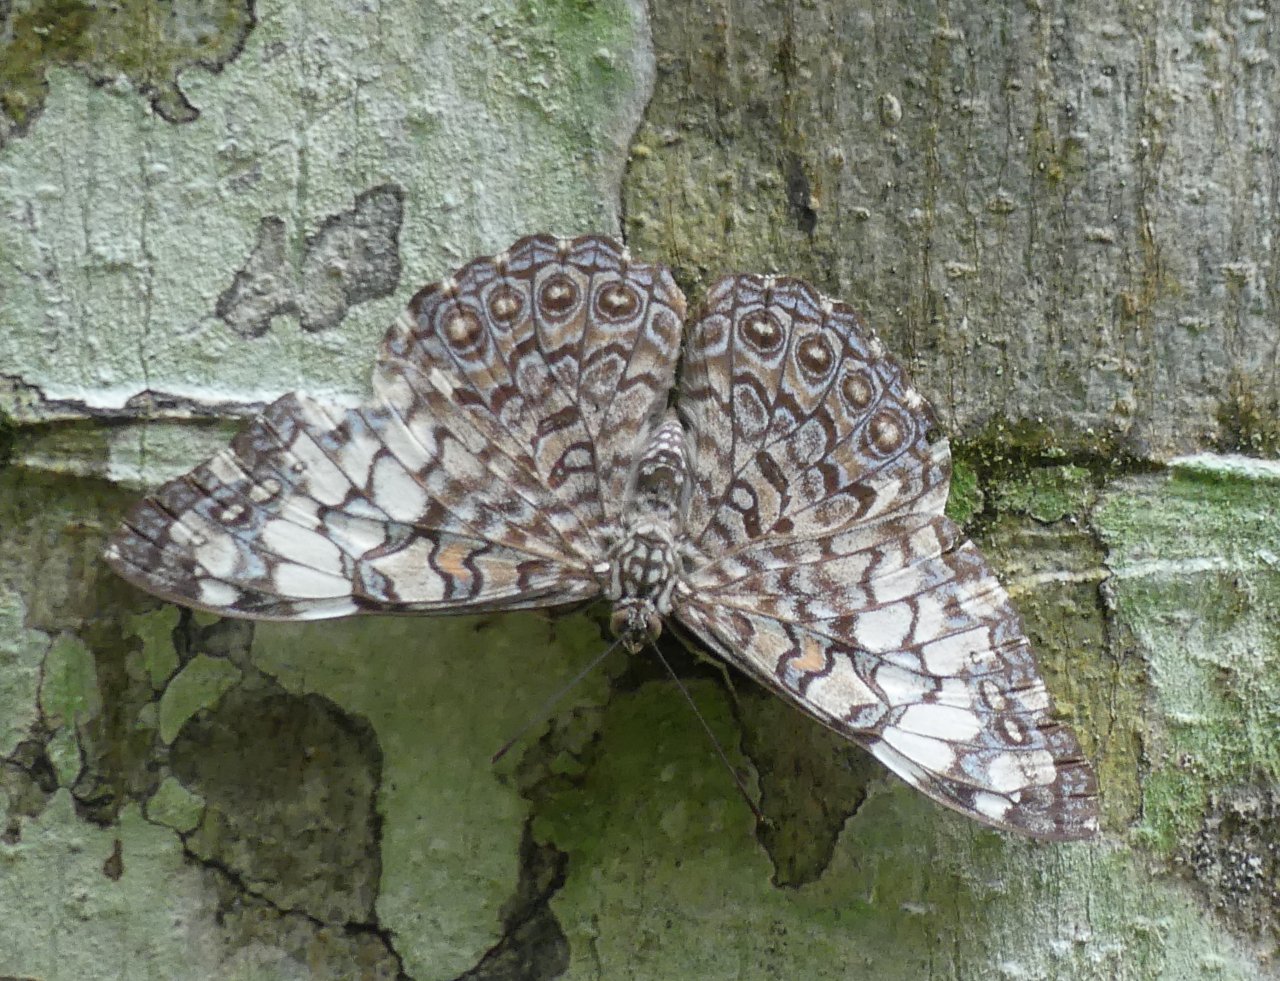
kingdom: Animalia
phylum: Arthropoda
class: Insecta
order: Lepidoptera
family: Nymphalidae
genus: Hamadryas
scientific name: Hamadryas iphthime
